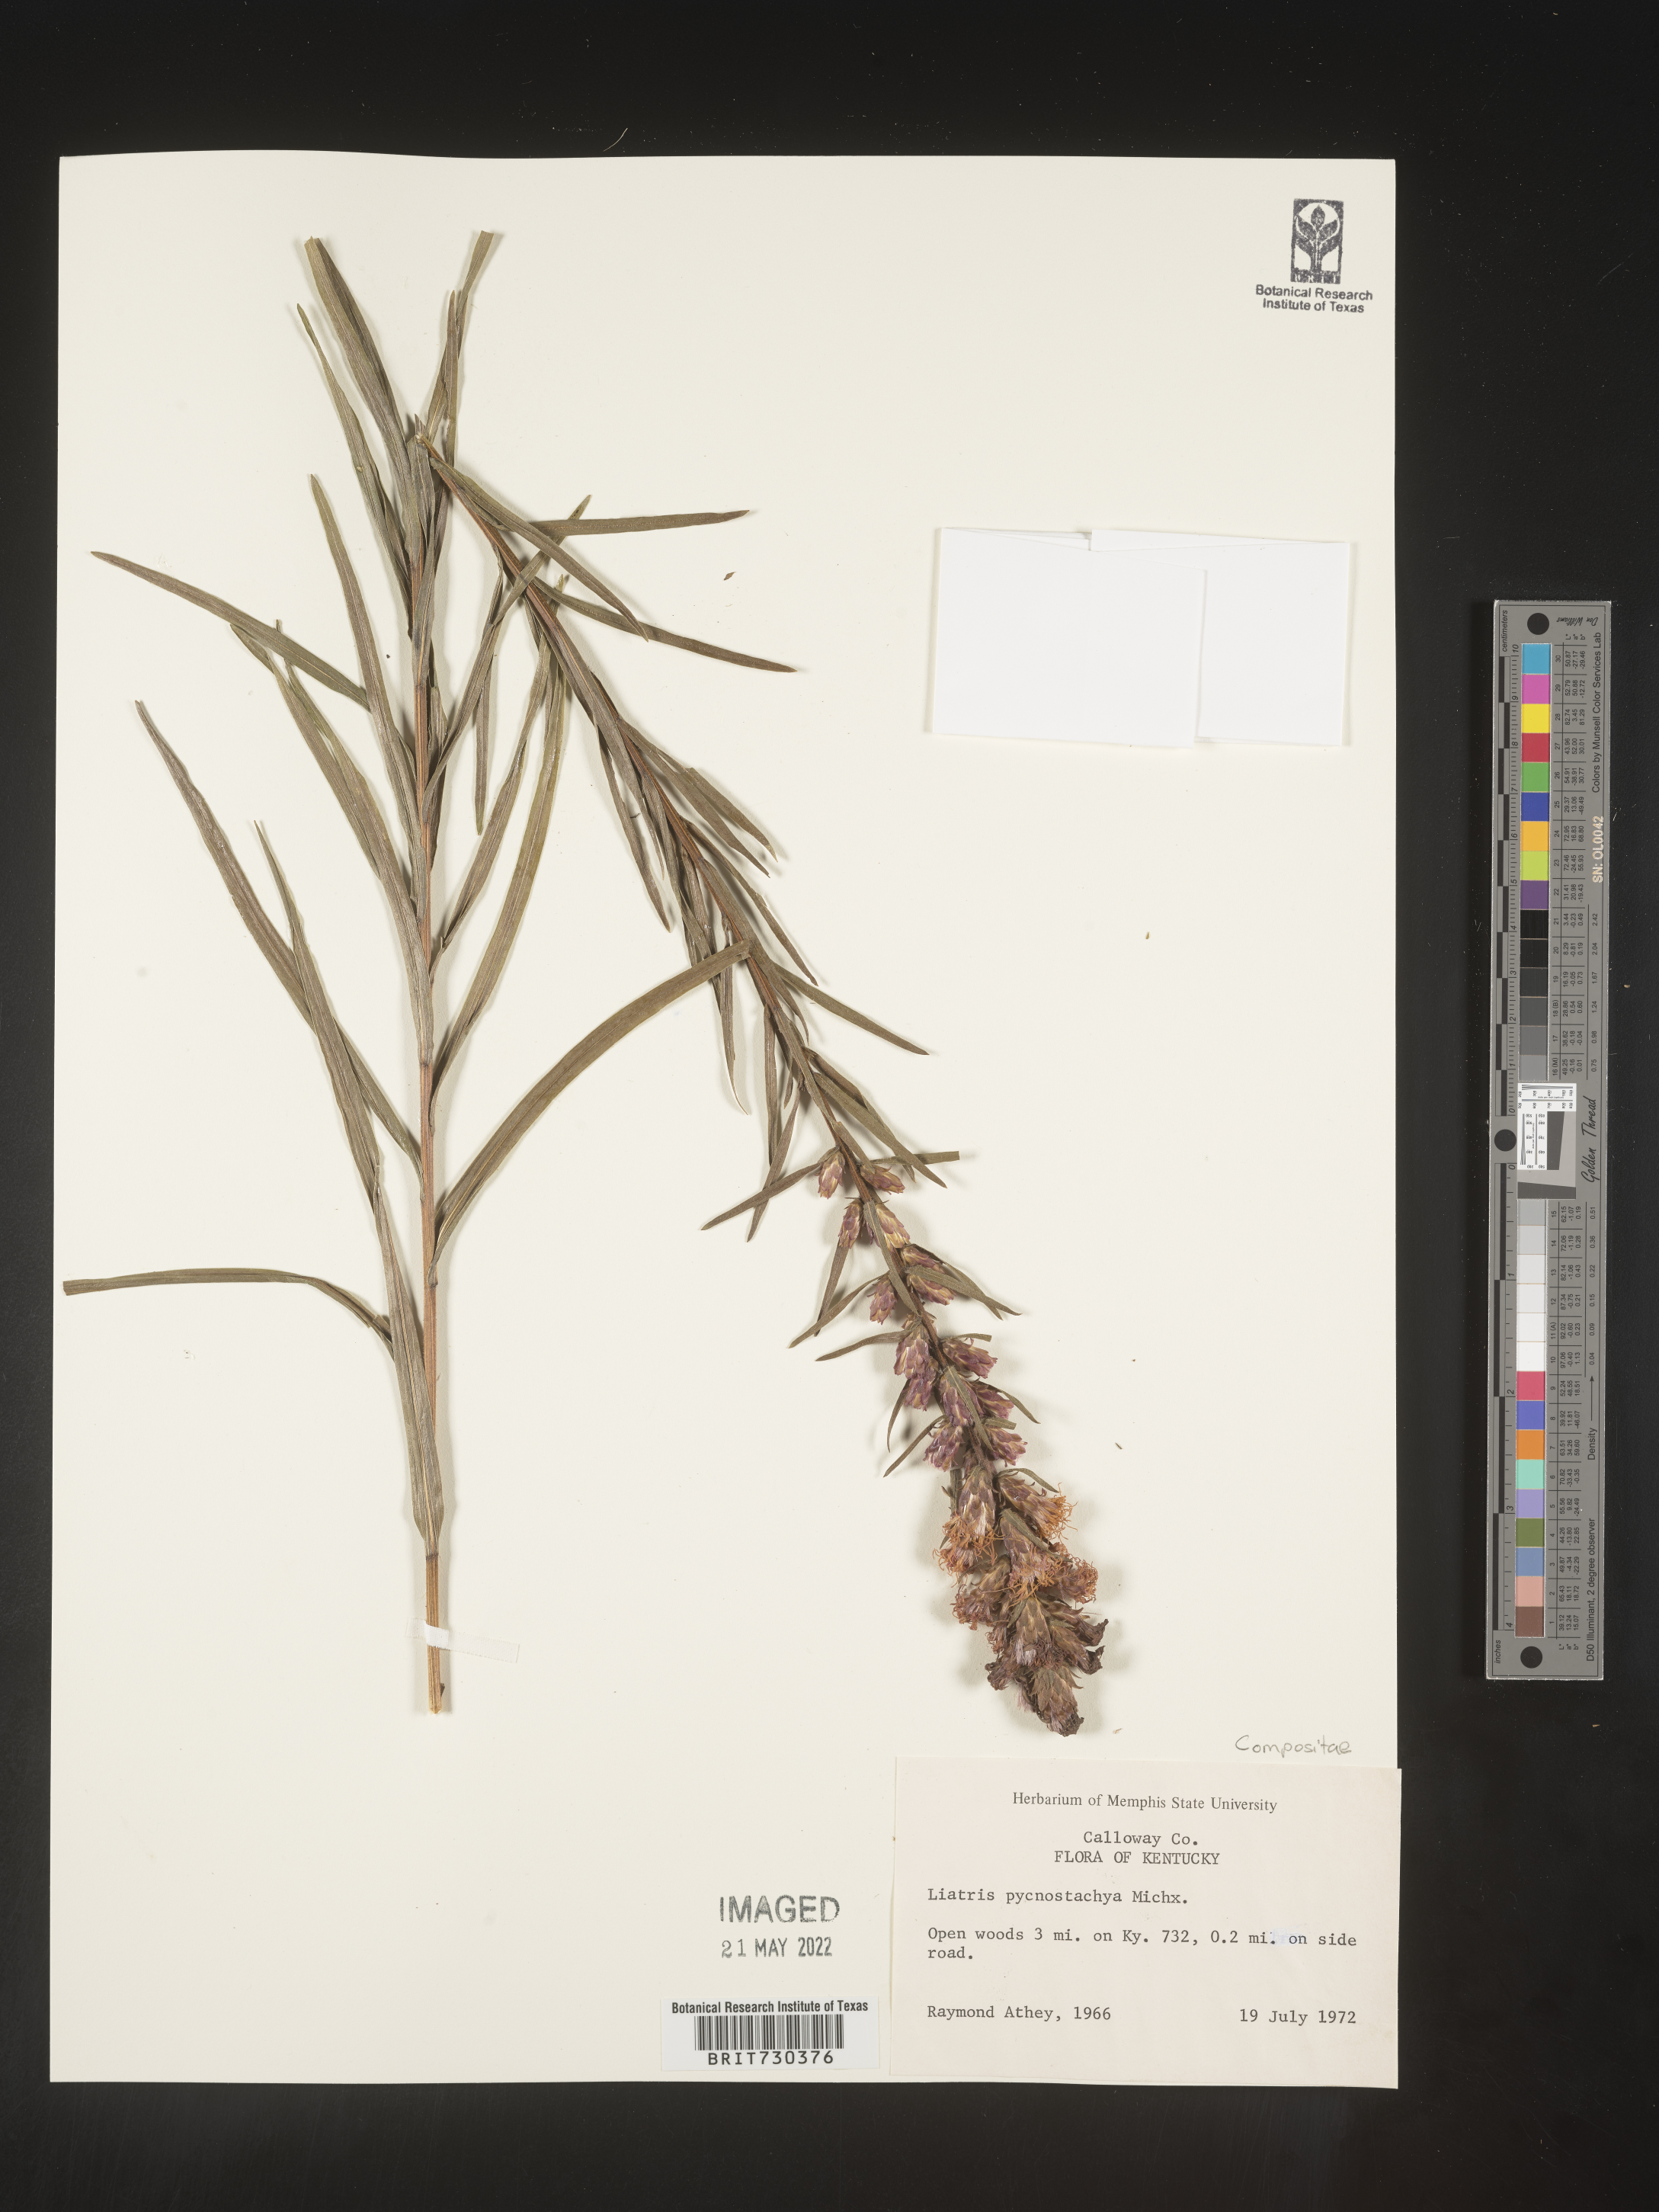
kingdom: Plantae
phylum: Tracheophyta
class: Magnoliopsida
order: Asterales
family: Asteraceae
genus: Liatris
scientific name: Liatris cylindracea
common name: Few-head blazingstar
